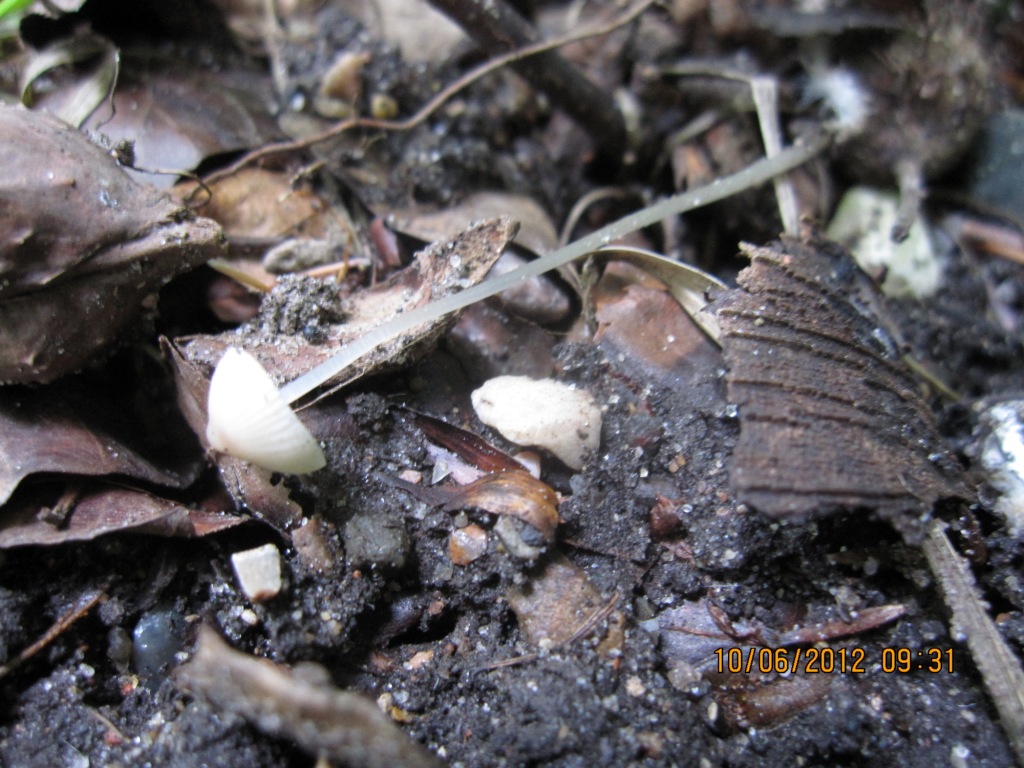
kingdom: Fungi
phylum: Basidiomycota
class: Agaricomycetes
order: Agaricales
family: Mycenaceae
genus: Mycena
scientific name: Mycena vitilis
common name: blankstokket huesvamp
